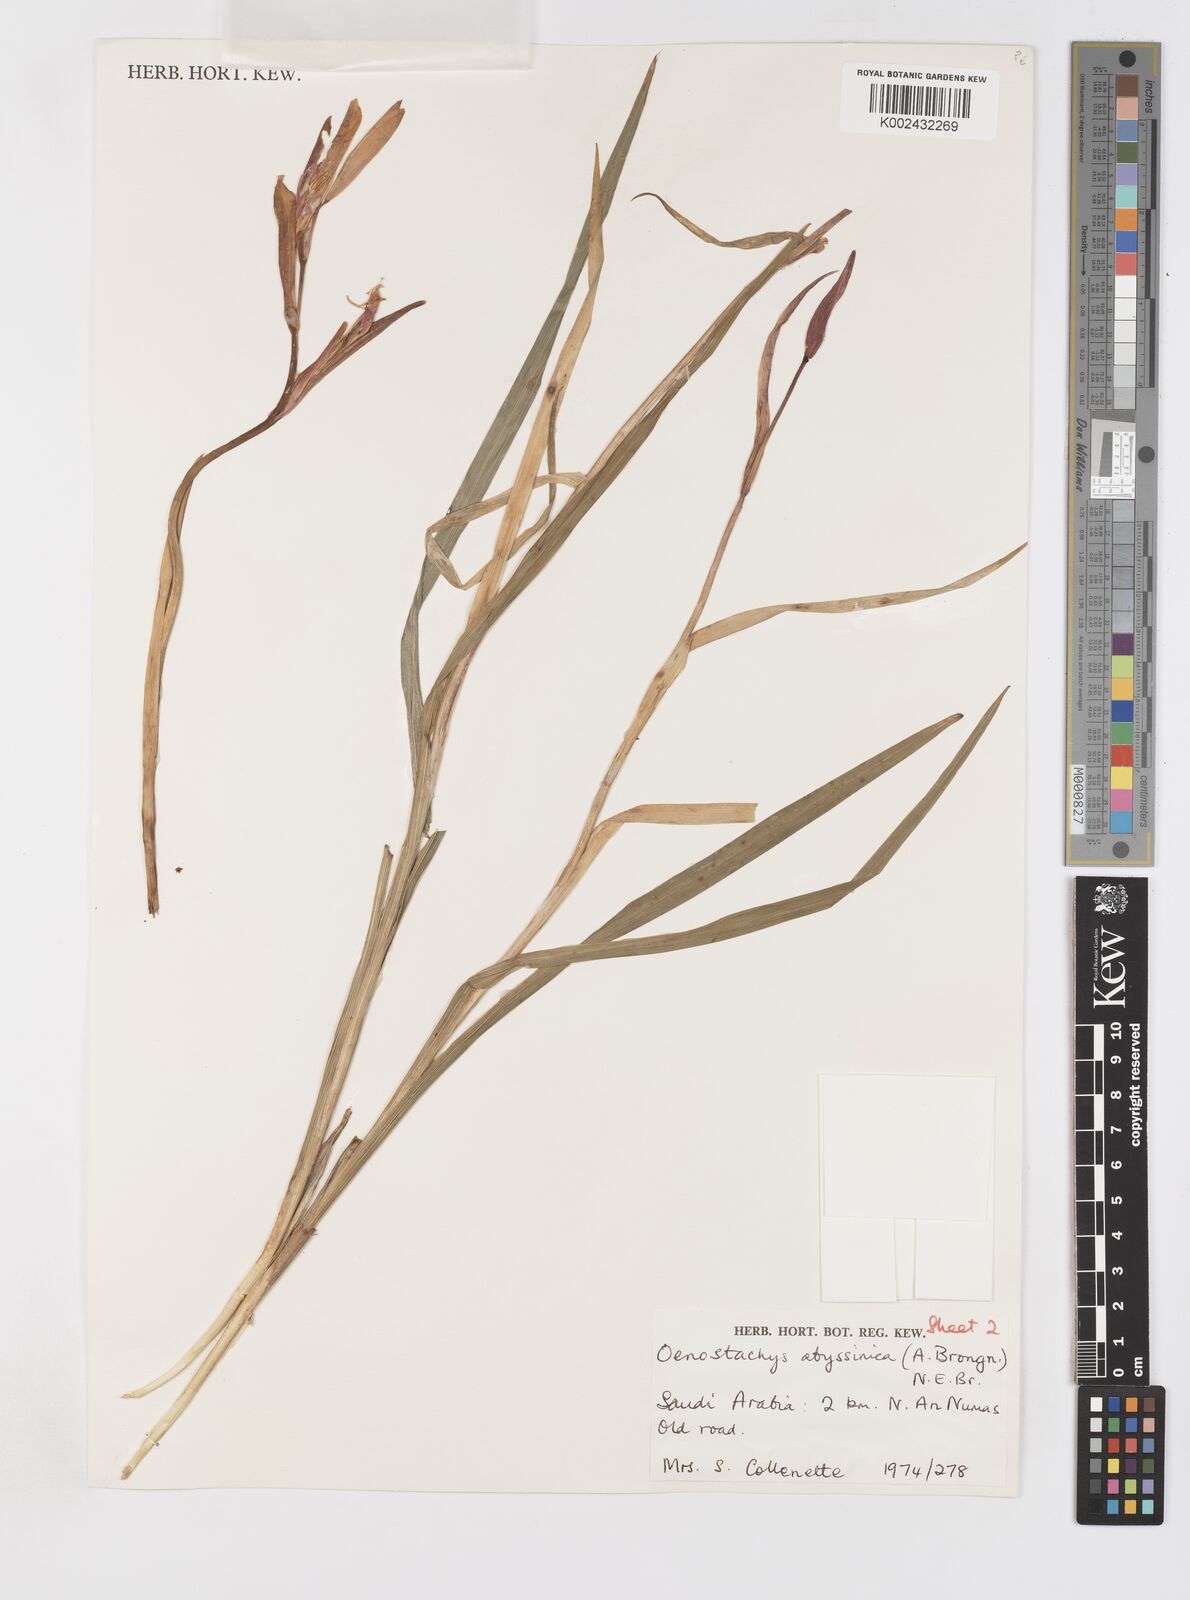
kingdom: Plantae
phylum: Tracheophyta
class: Liliopsida
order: Asparagales
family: Iridaceae
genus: Gladiolus
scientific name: Gladiolus abyssinicus
